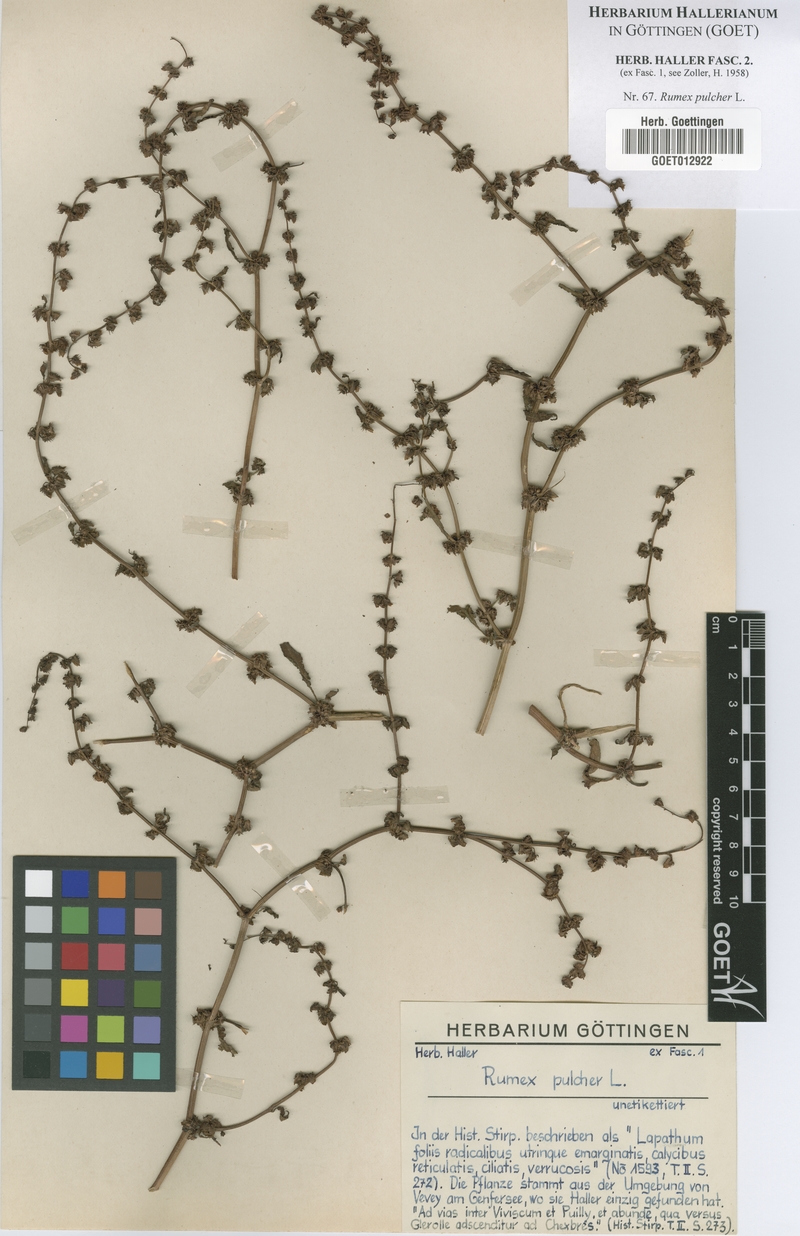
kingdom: Plantae
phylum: Tracheophyta
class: Magnoliopsida
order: Caryophyllales
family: Polygonaceae
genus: Rumex
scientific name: Rumex pulcher
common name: Fiddle dock
